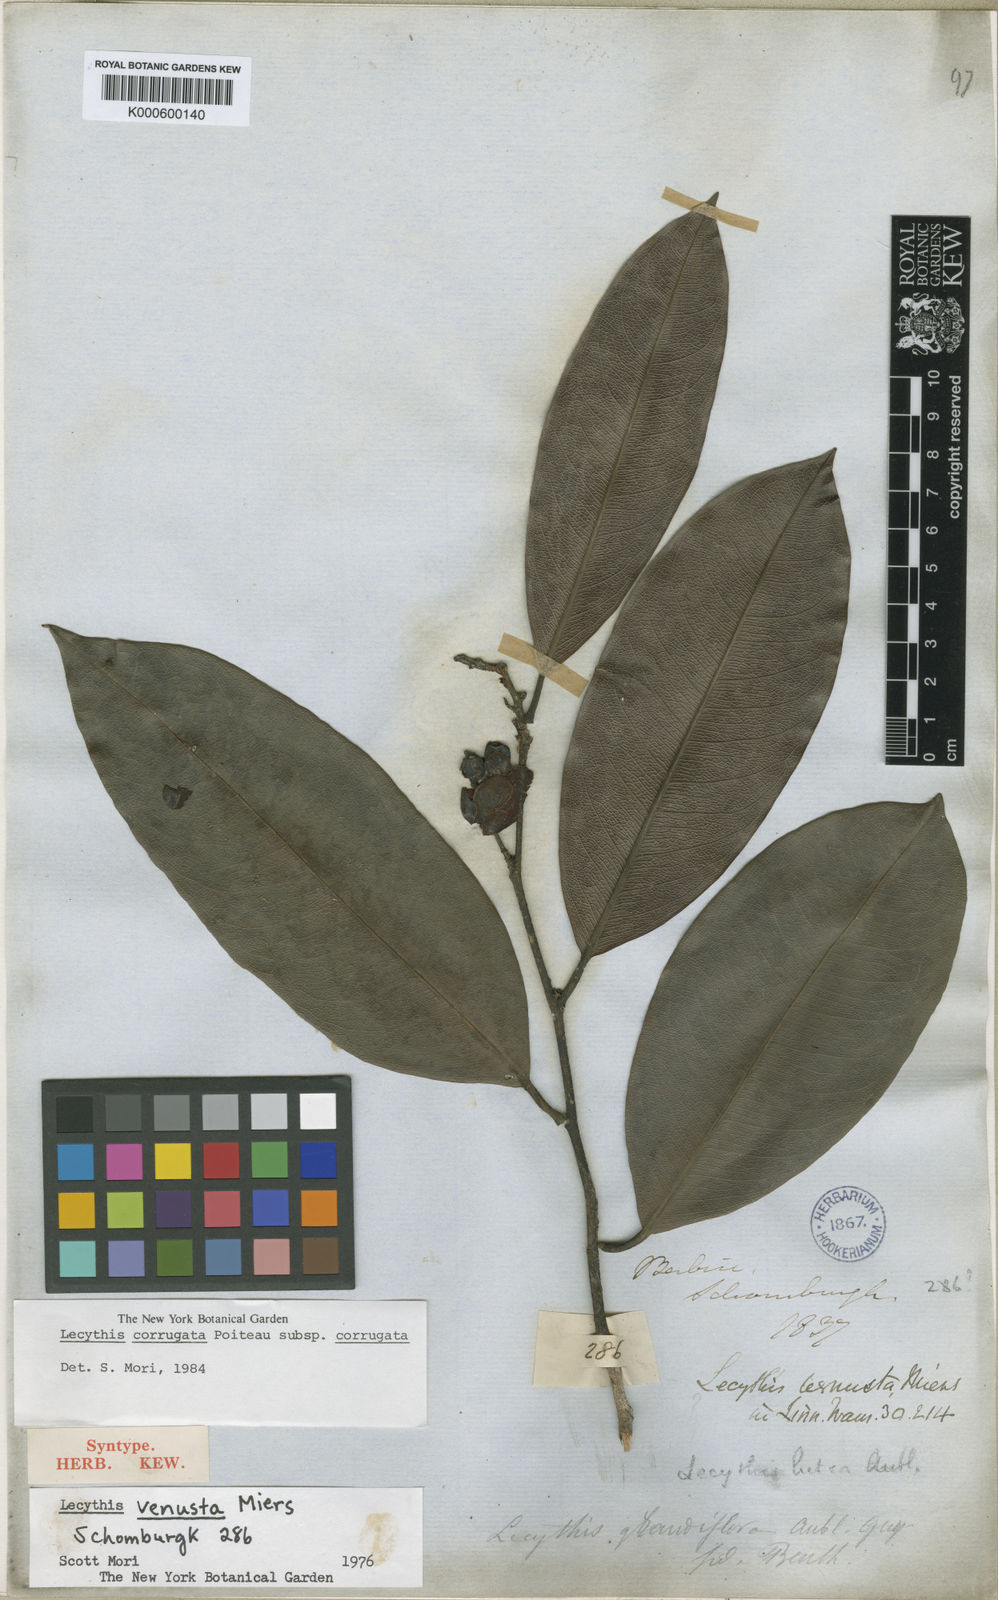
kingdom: Plantae
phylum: Tracheophyta
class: Magnoliopsida
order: Ericales
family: Lecythidaceae
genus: Lecythis
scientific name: Lecythis corrugata
